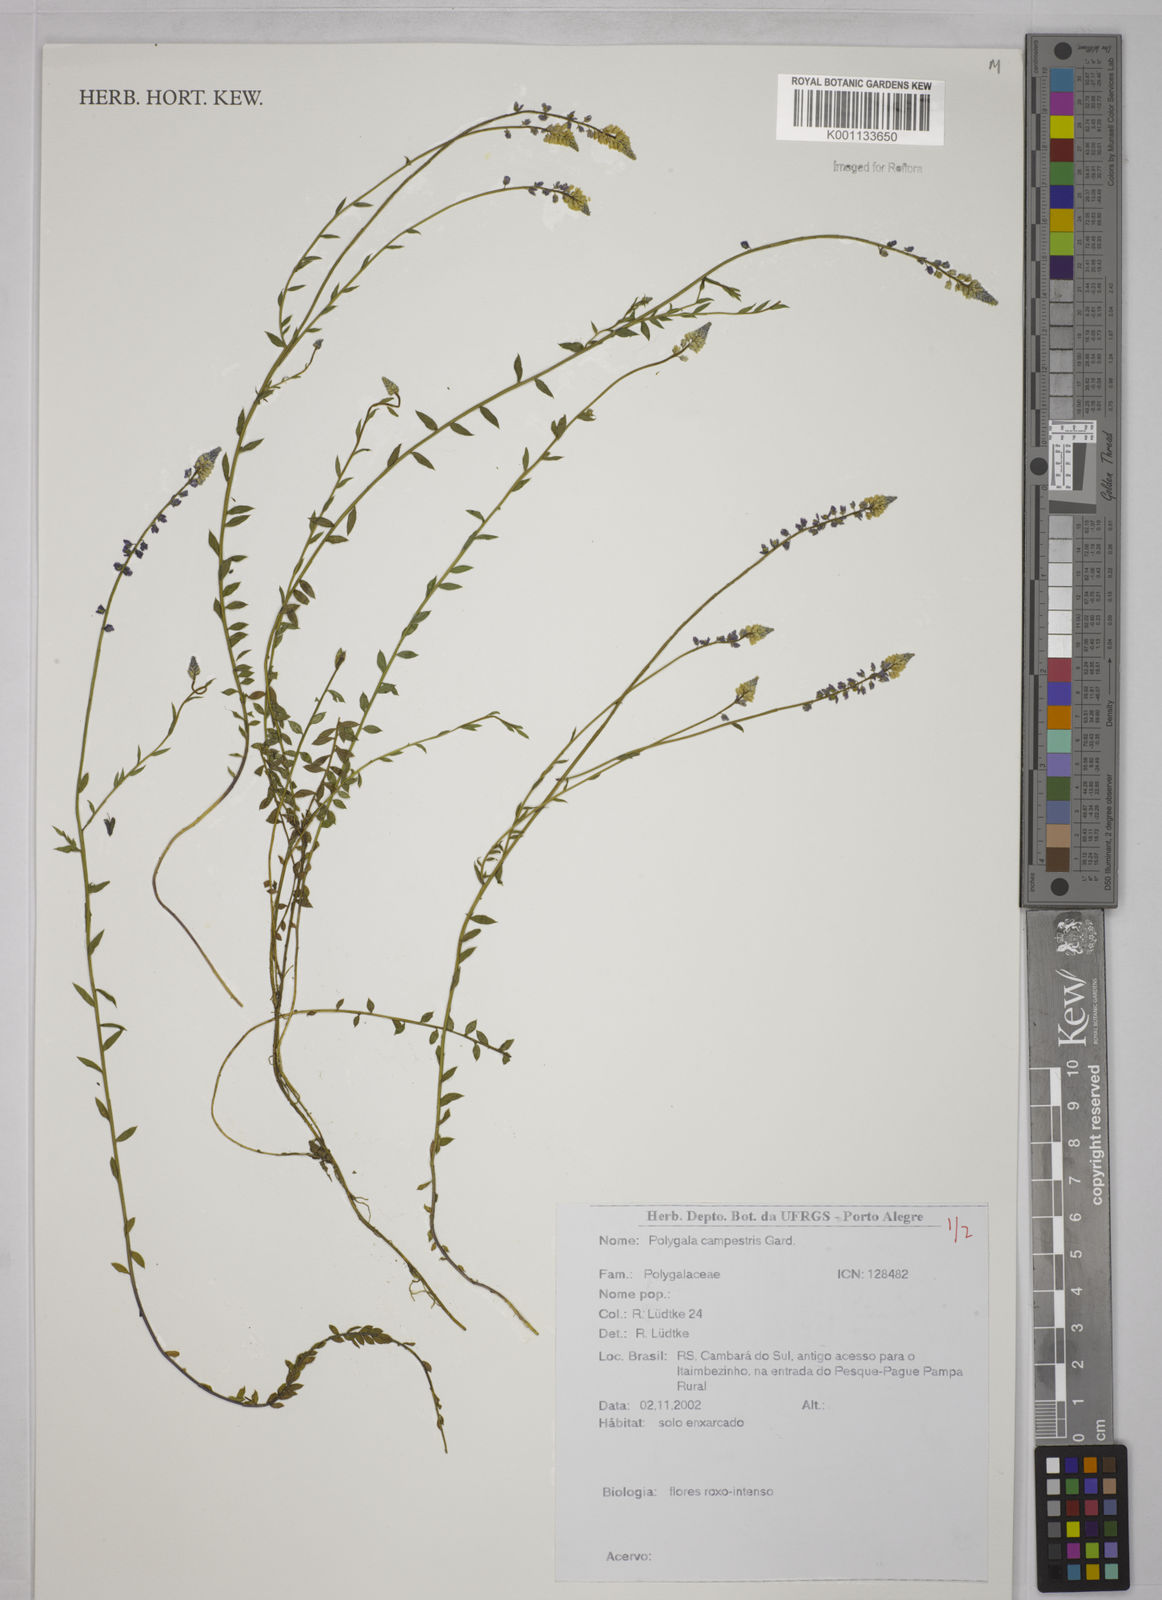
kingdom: Plantae
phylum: Tracheophyta
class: Magnoliopsida
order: Fabales
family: Polygalaceae
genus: Polygala
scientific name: Polygala campestris
